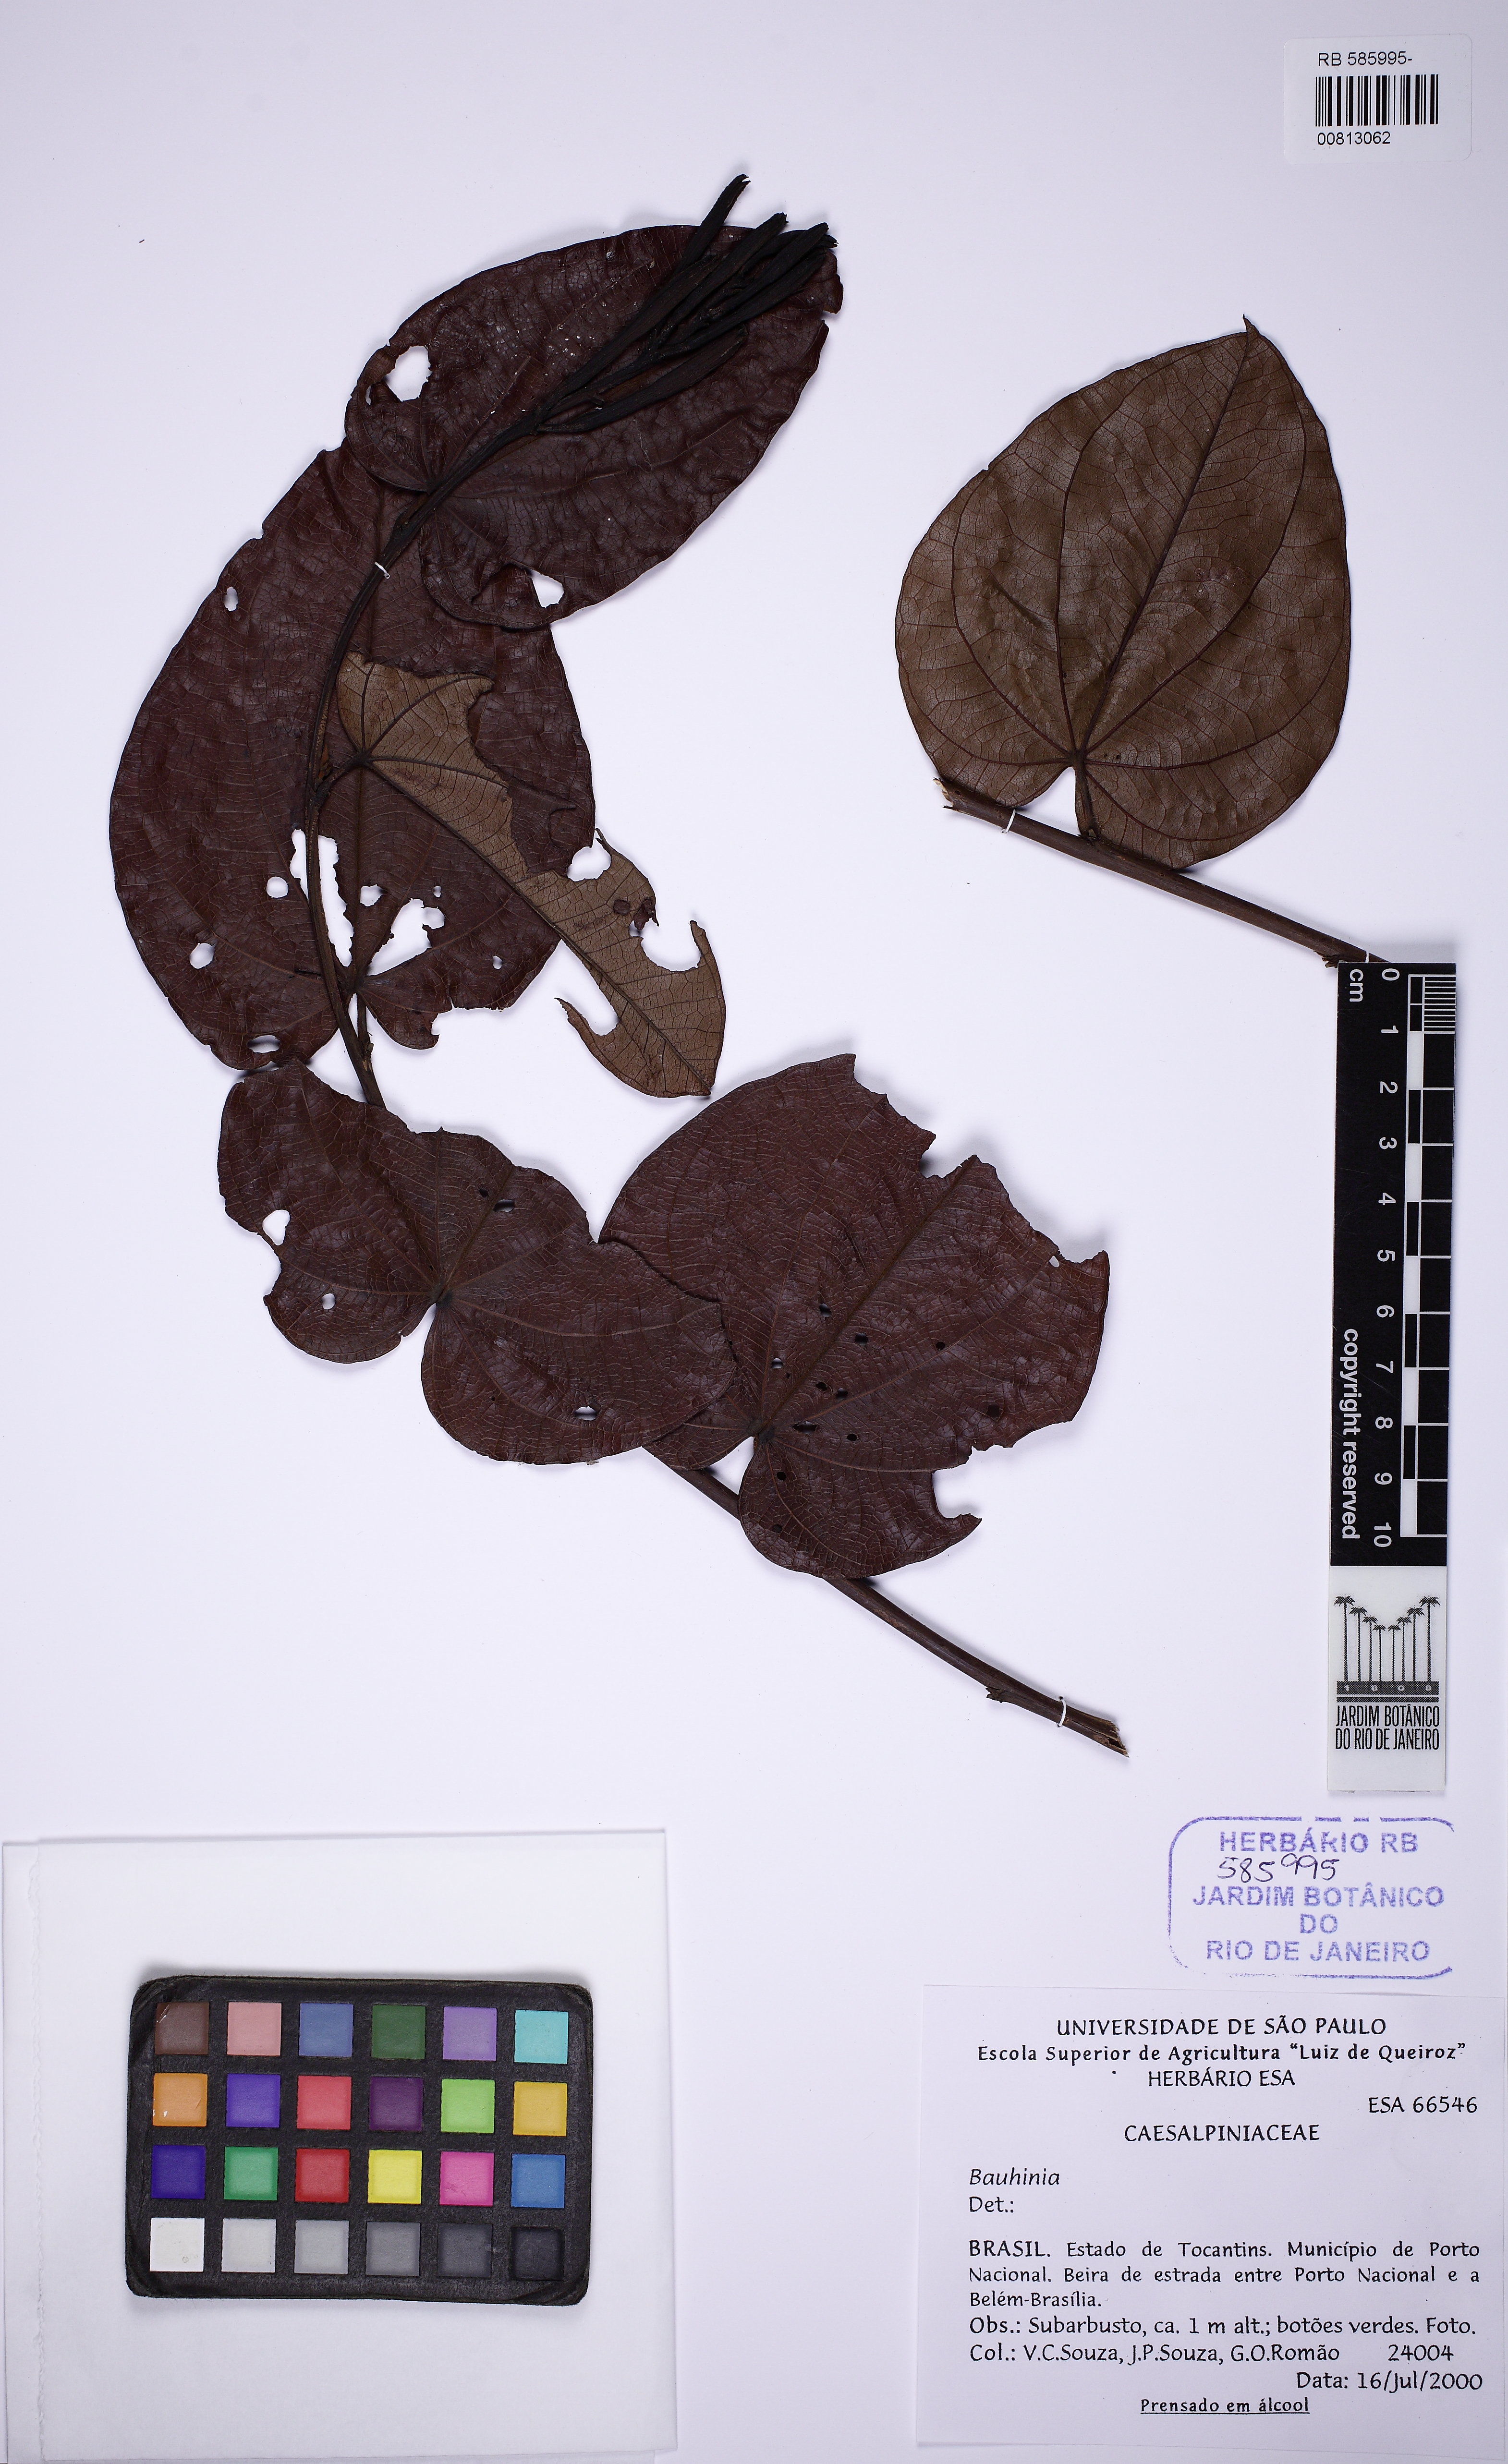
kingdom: Plantae
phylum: Tracheophyta
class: Magnoliopsida
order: Fabales
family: Fabaceae
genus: Bauhinia
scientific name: Bauhinia
